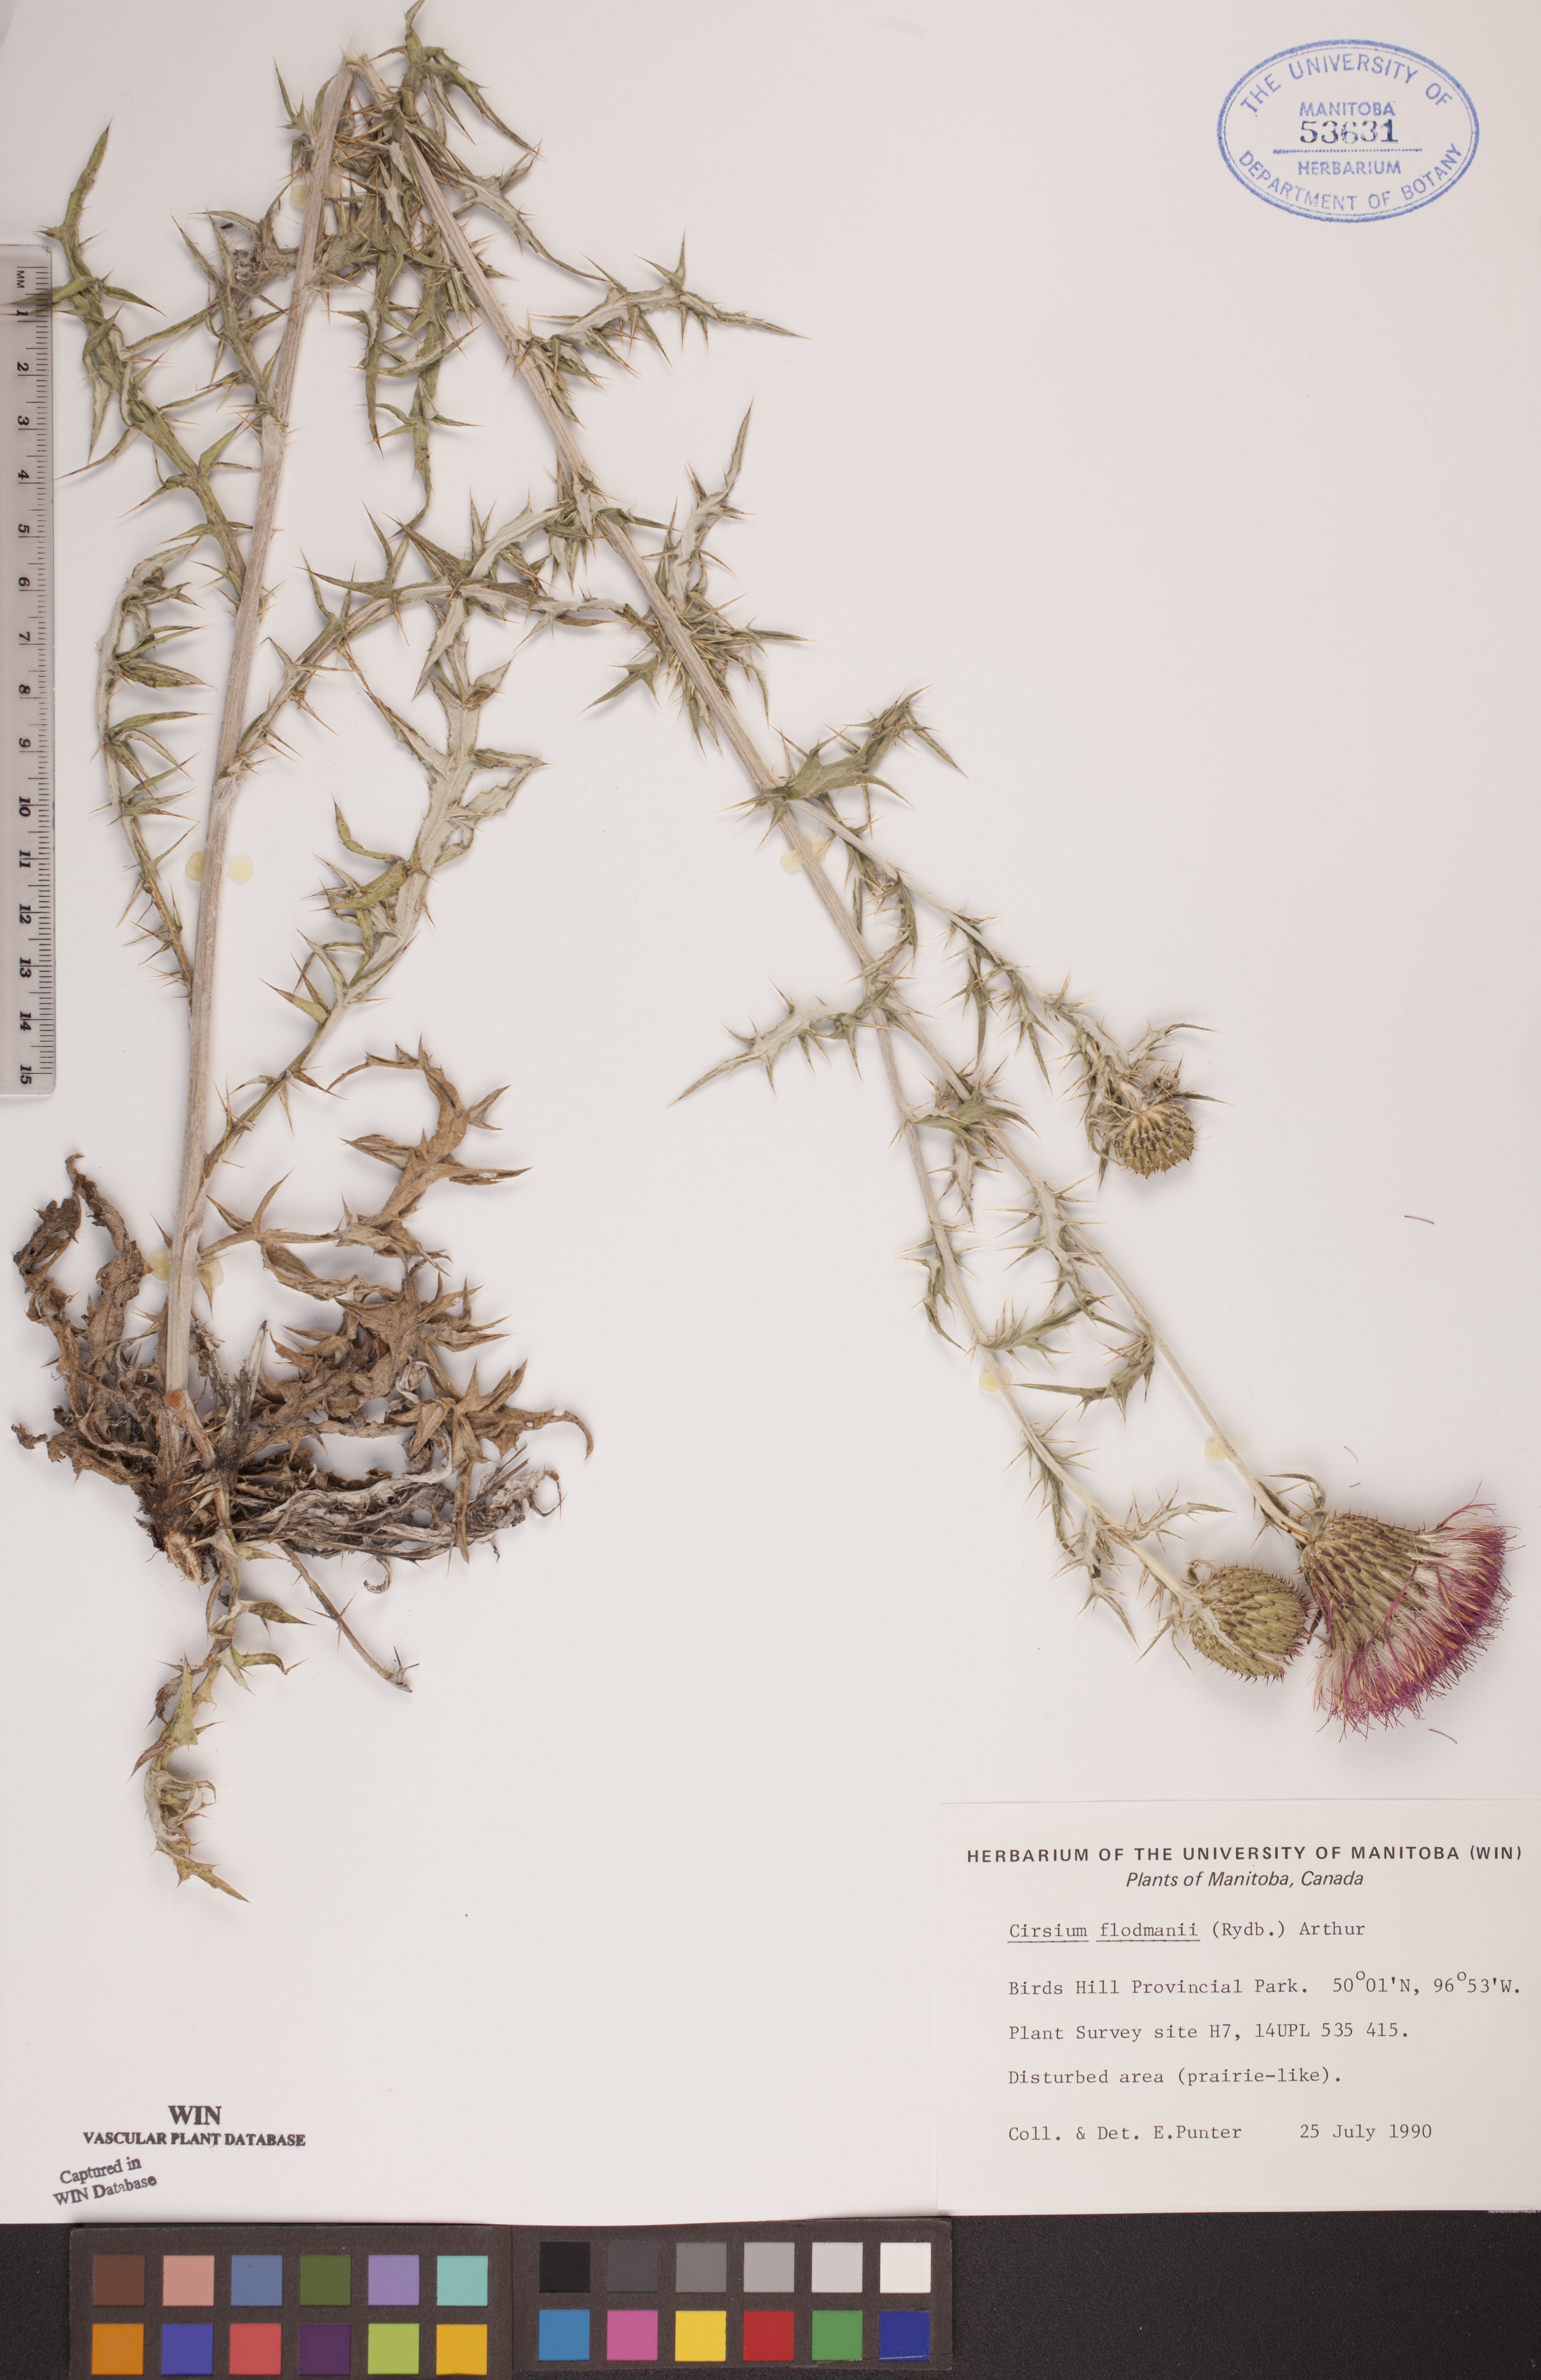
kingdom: Plantae
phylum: Tracheophyta
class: Magnoliopsida
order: Asterales
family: Asteraceae
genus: Cirsium
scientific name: Cirsium flodmanii
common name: Flodman's thistle
